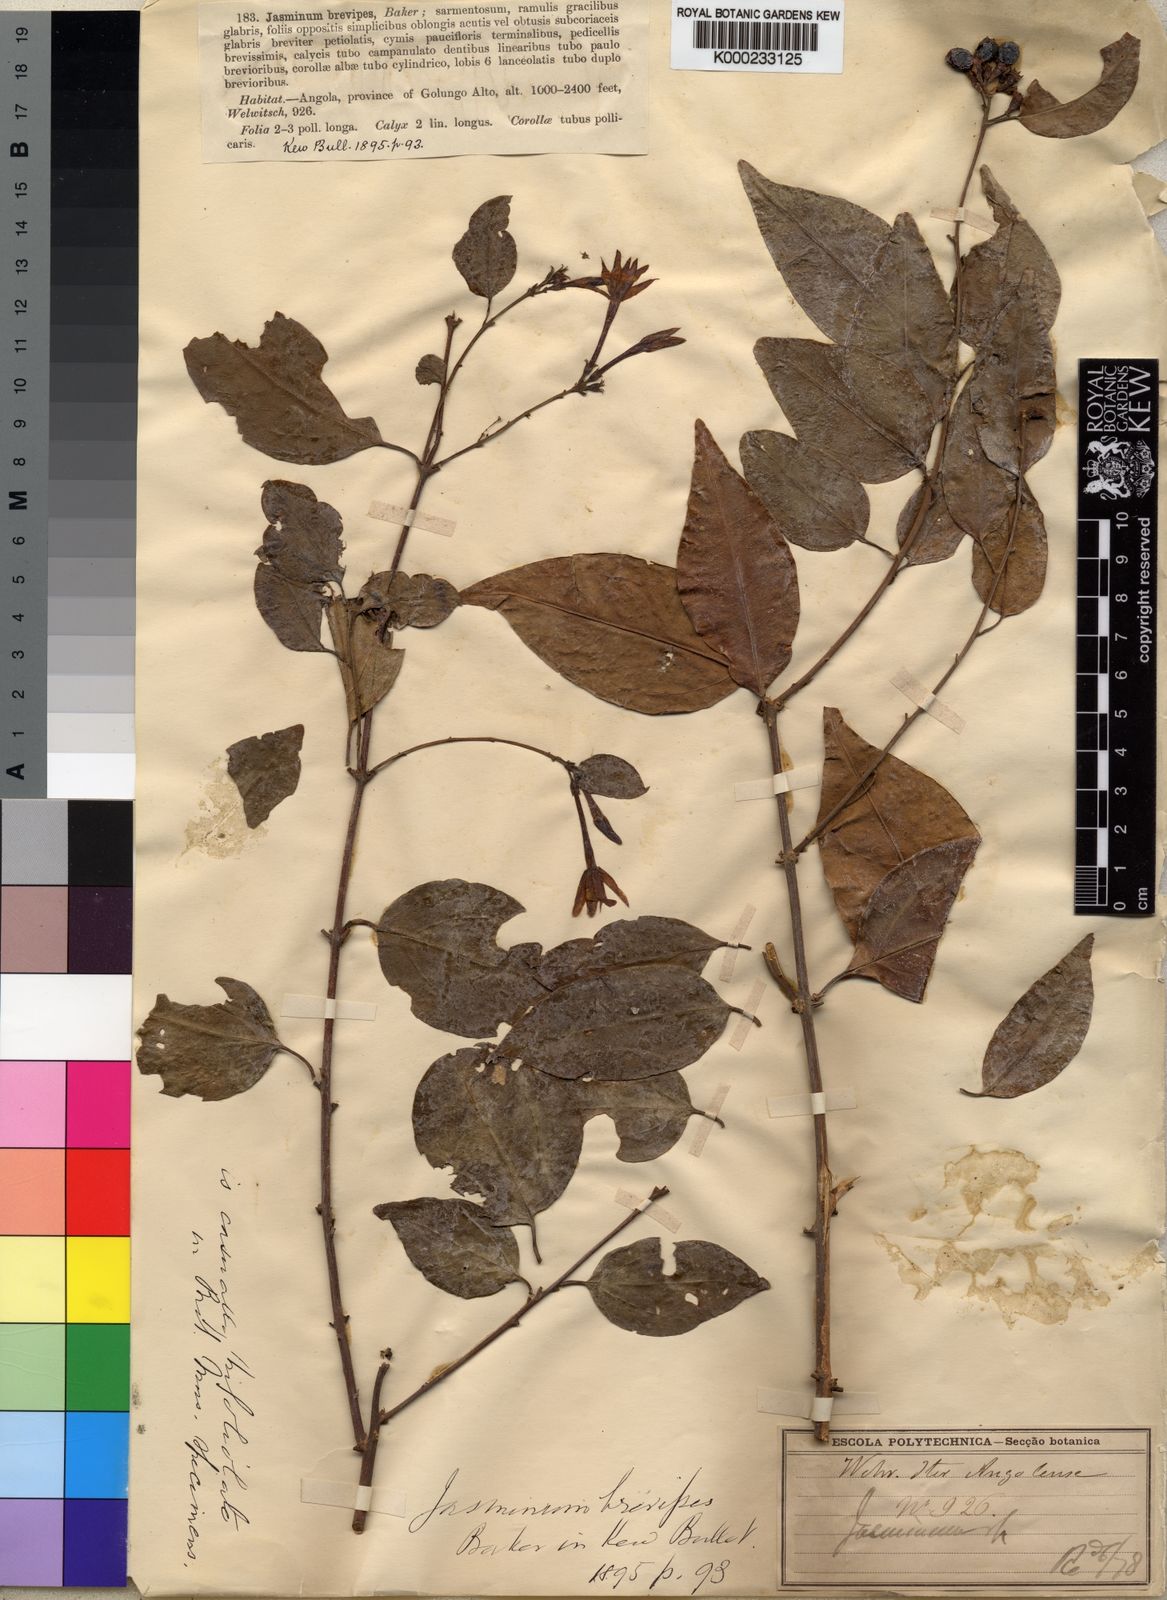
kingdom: Plantae
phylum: Tracheophyta
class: Magnoliopsida
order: Lamiales
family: Oleaceae
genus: Jasminum
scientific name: Jasminum dichotomum
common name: Gold coast jasmine
